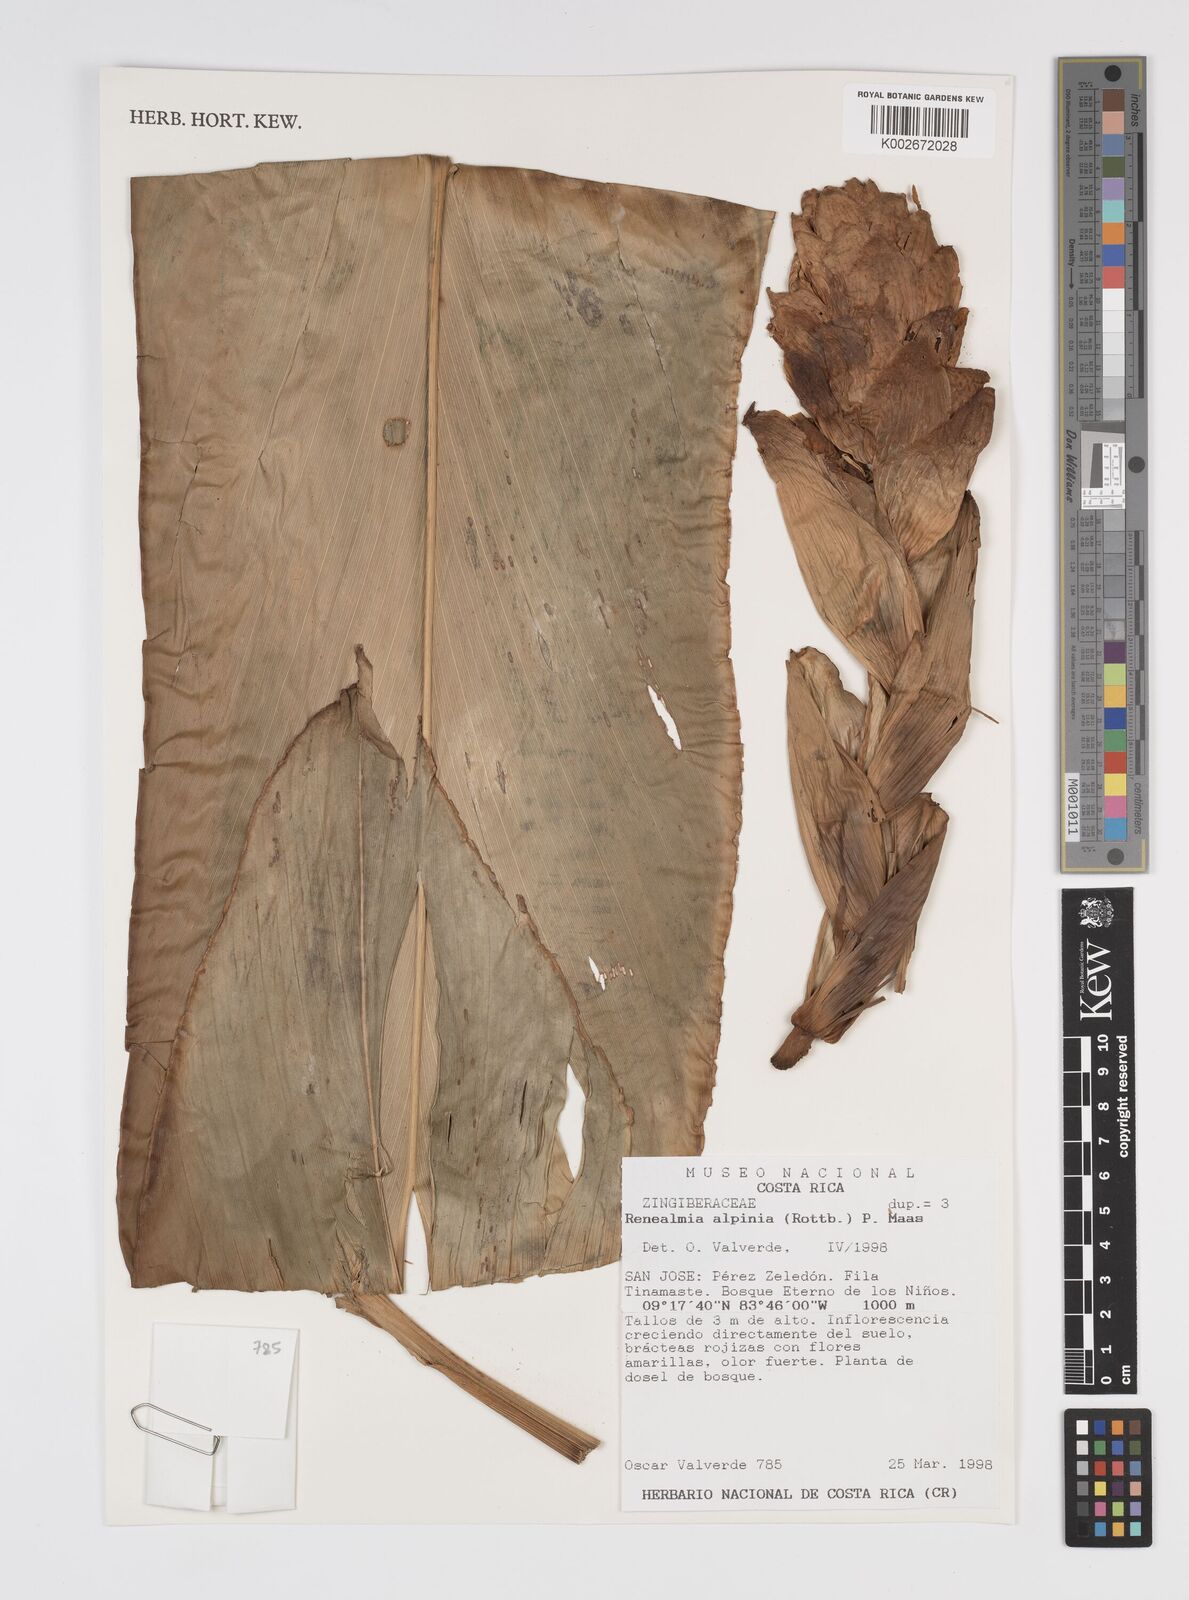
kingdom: Plantae
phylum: Tracheophyta
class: Liliopsida
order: Zingiberales
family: Zingiberaceae
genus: Renealmia
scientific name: Renealmia alpinia
